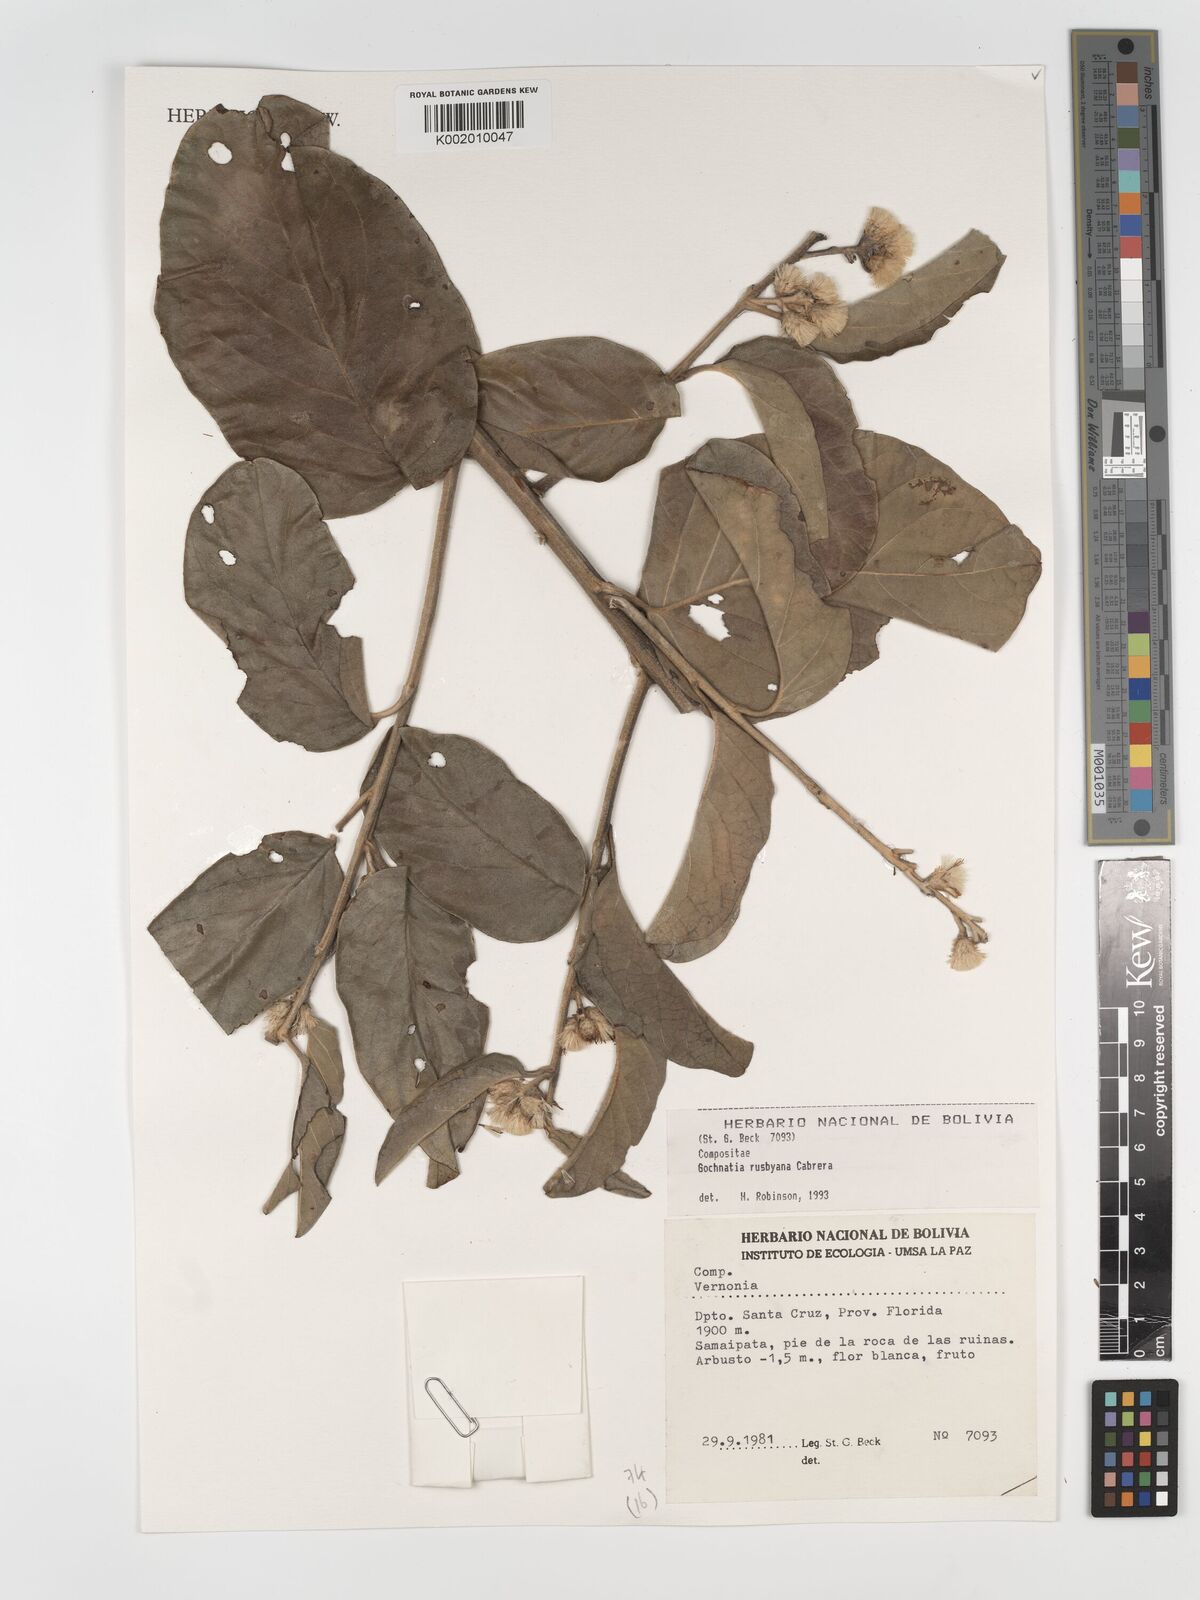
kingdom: Plantae
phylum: Tracheophyta
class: Magnoliopsida
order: Asterales
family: Asteraceae
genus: Moquiniastrum
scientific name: Moquiniastrum bolivianum
